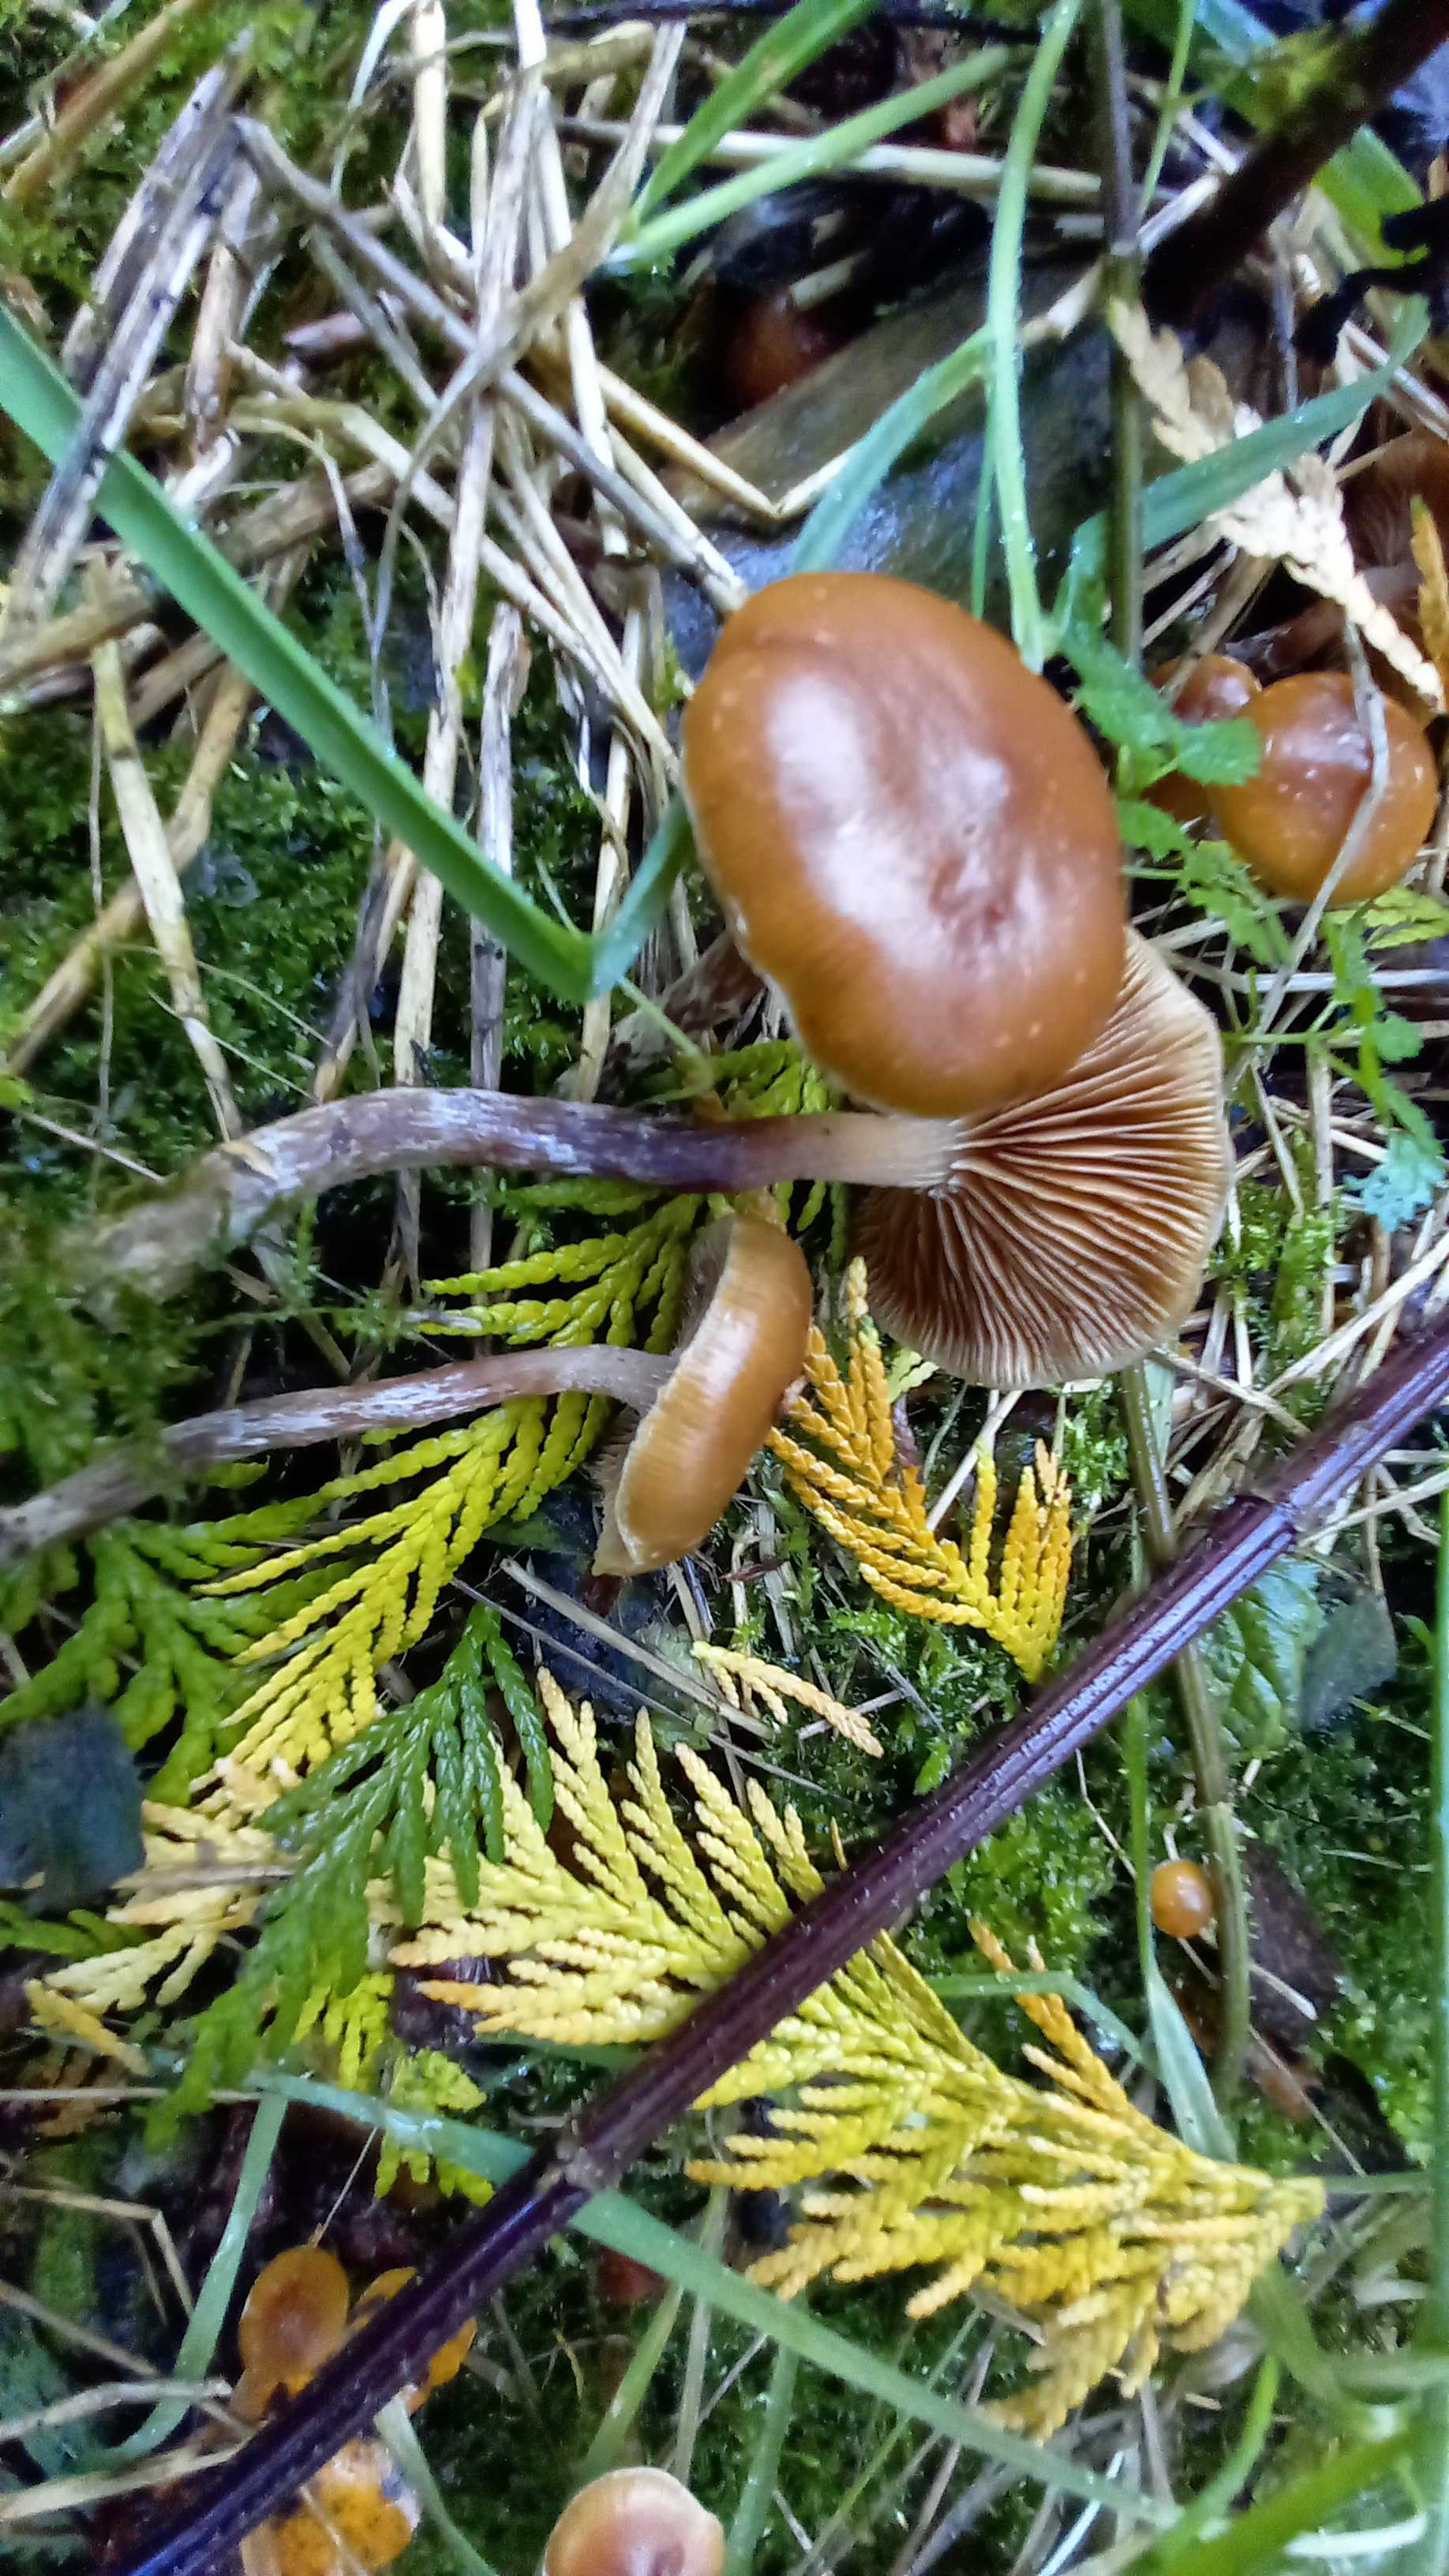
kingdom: Fungi
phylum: Basidiomycota
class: Agaricomycetes
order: Agaricales
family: Hymenogastraceae
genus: Galerina
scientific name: Galerina sideroides
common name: træflis-hjelmhat
